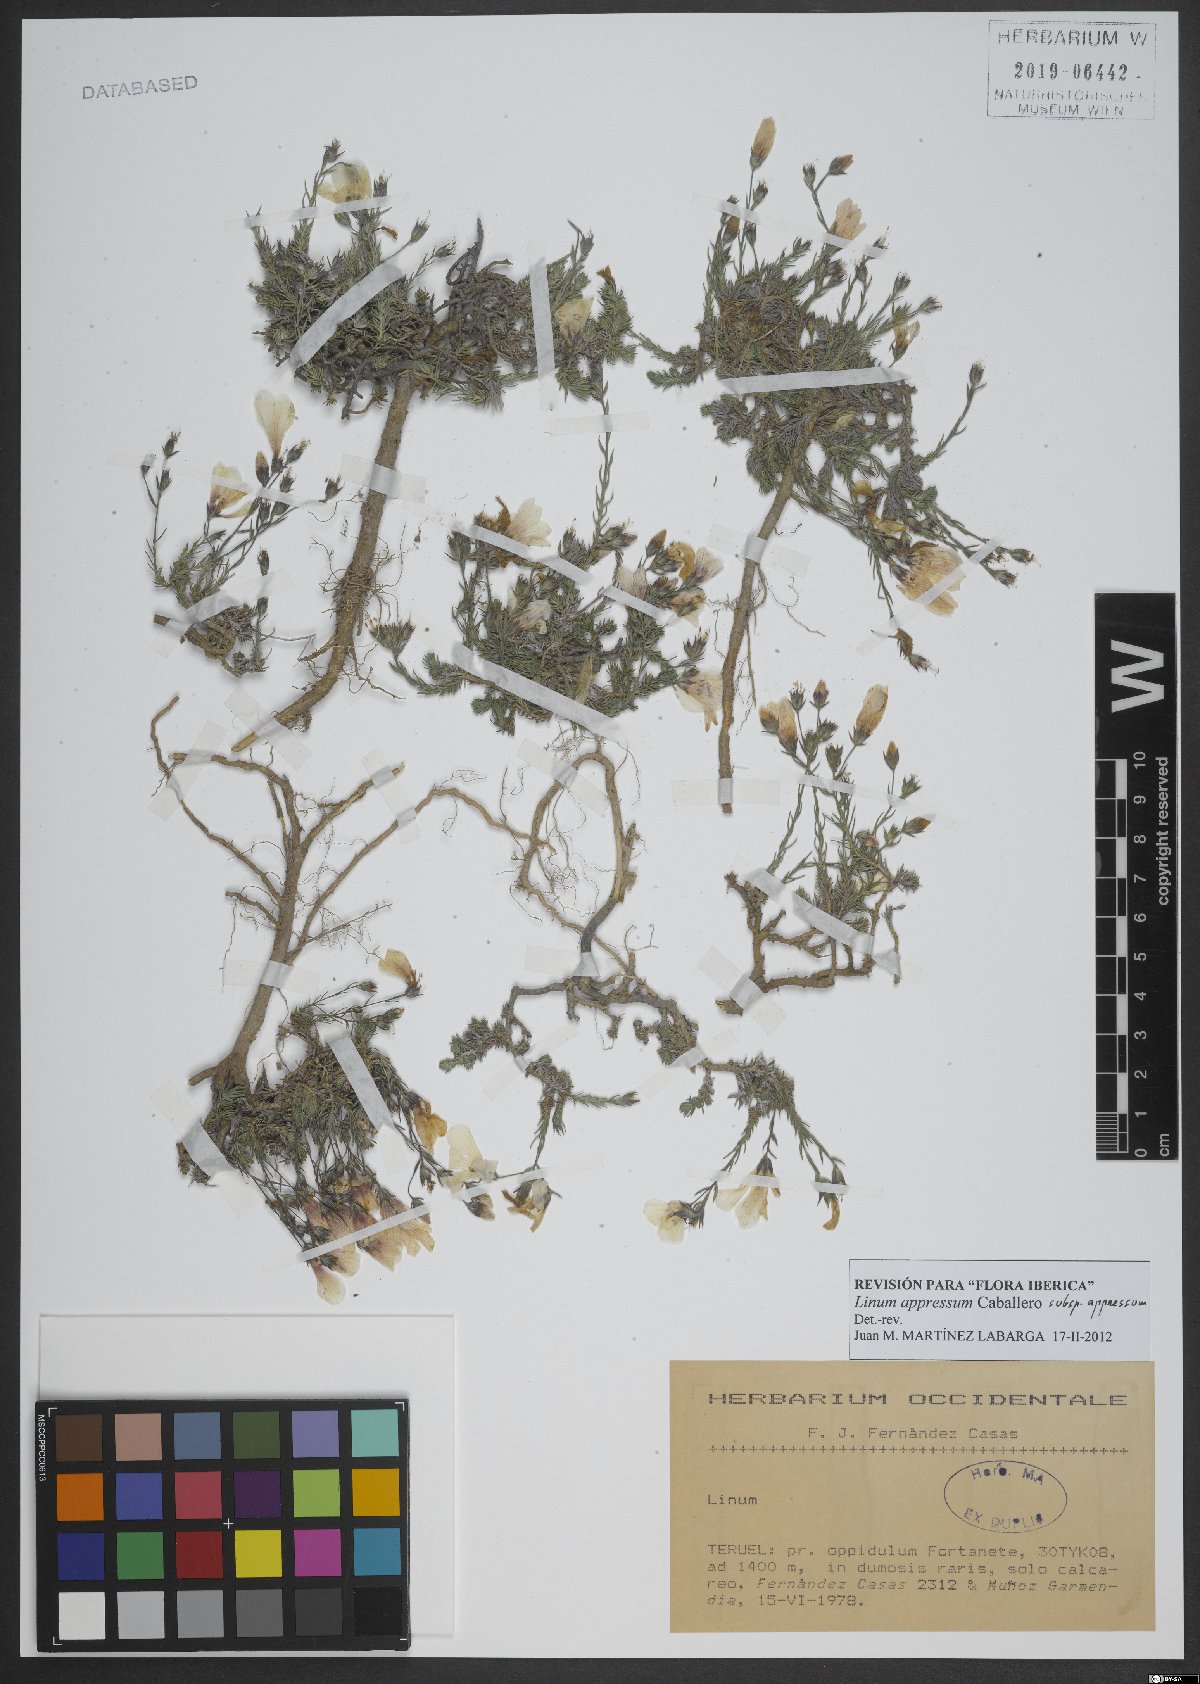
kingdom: Plantae
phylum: Tracheophyta
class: Magnoliopsida
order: Malpighiales
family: Linaceae
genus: Linum
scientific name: Linum appressum
